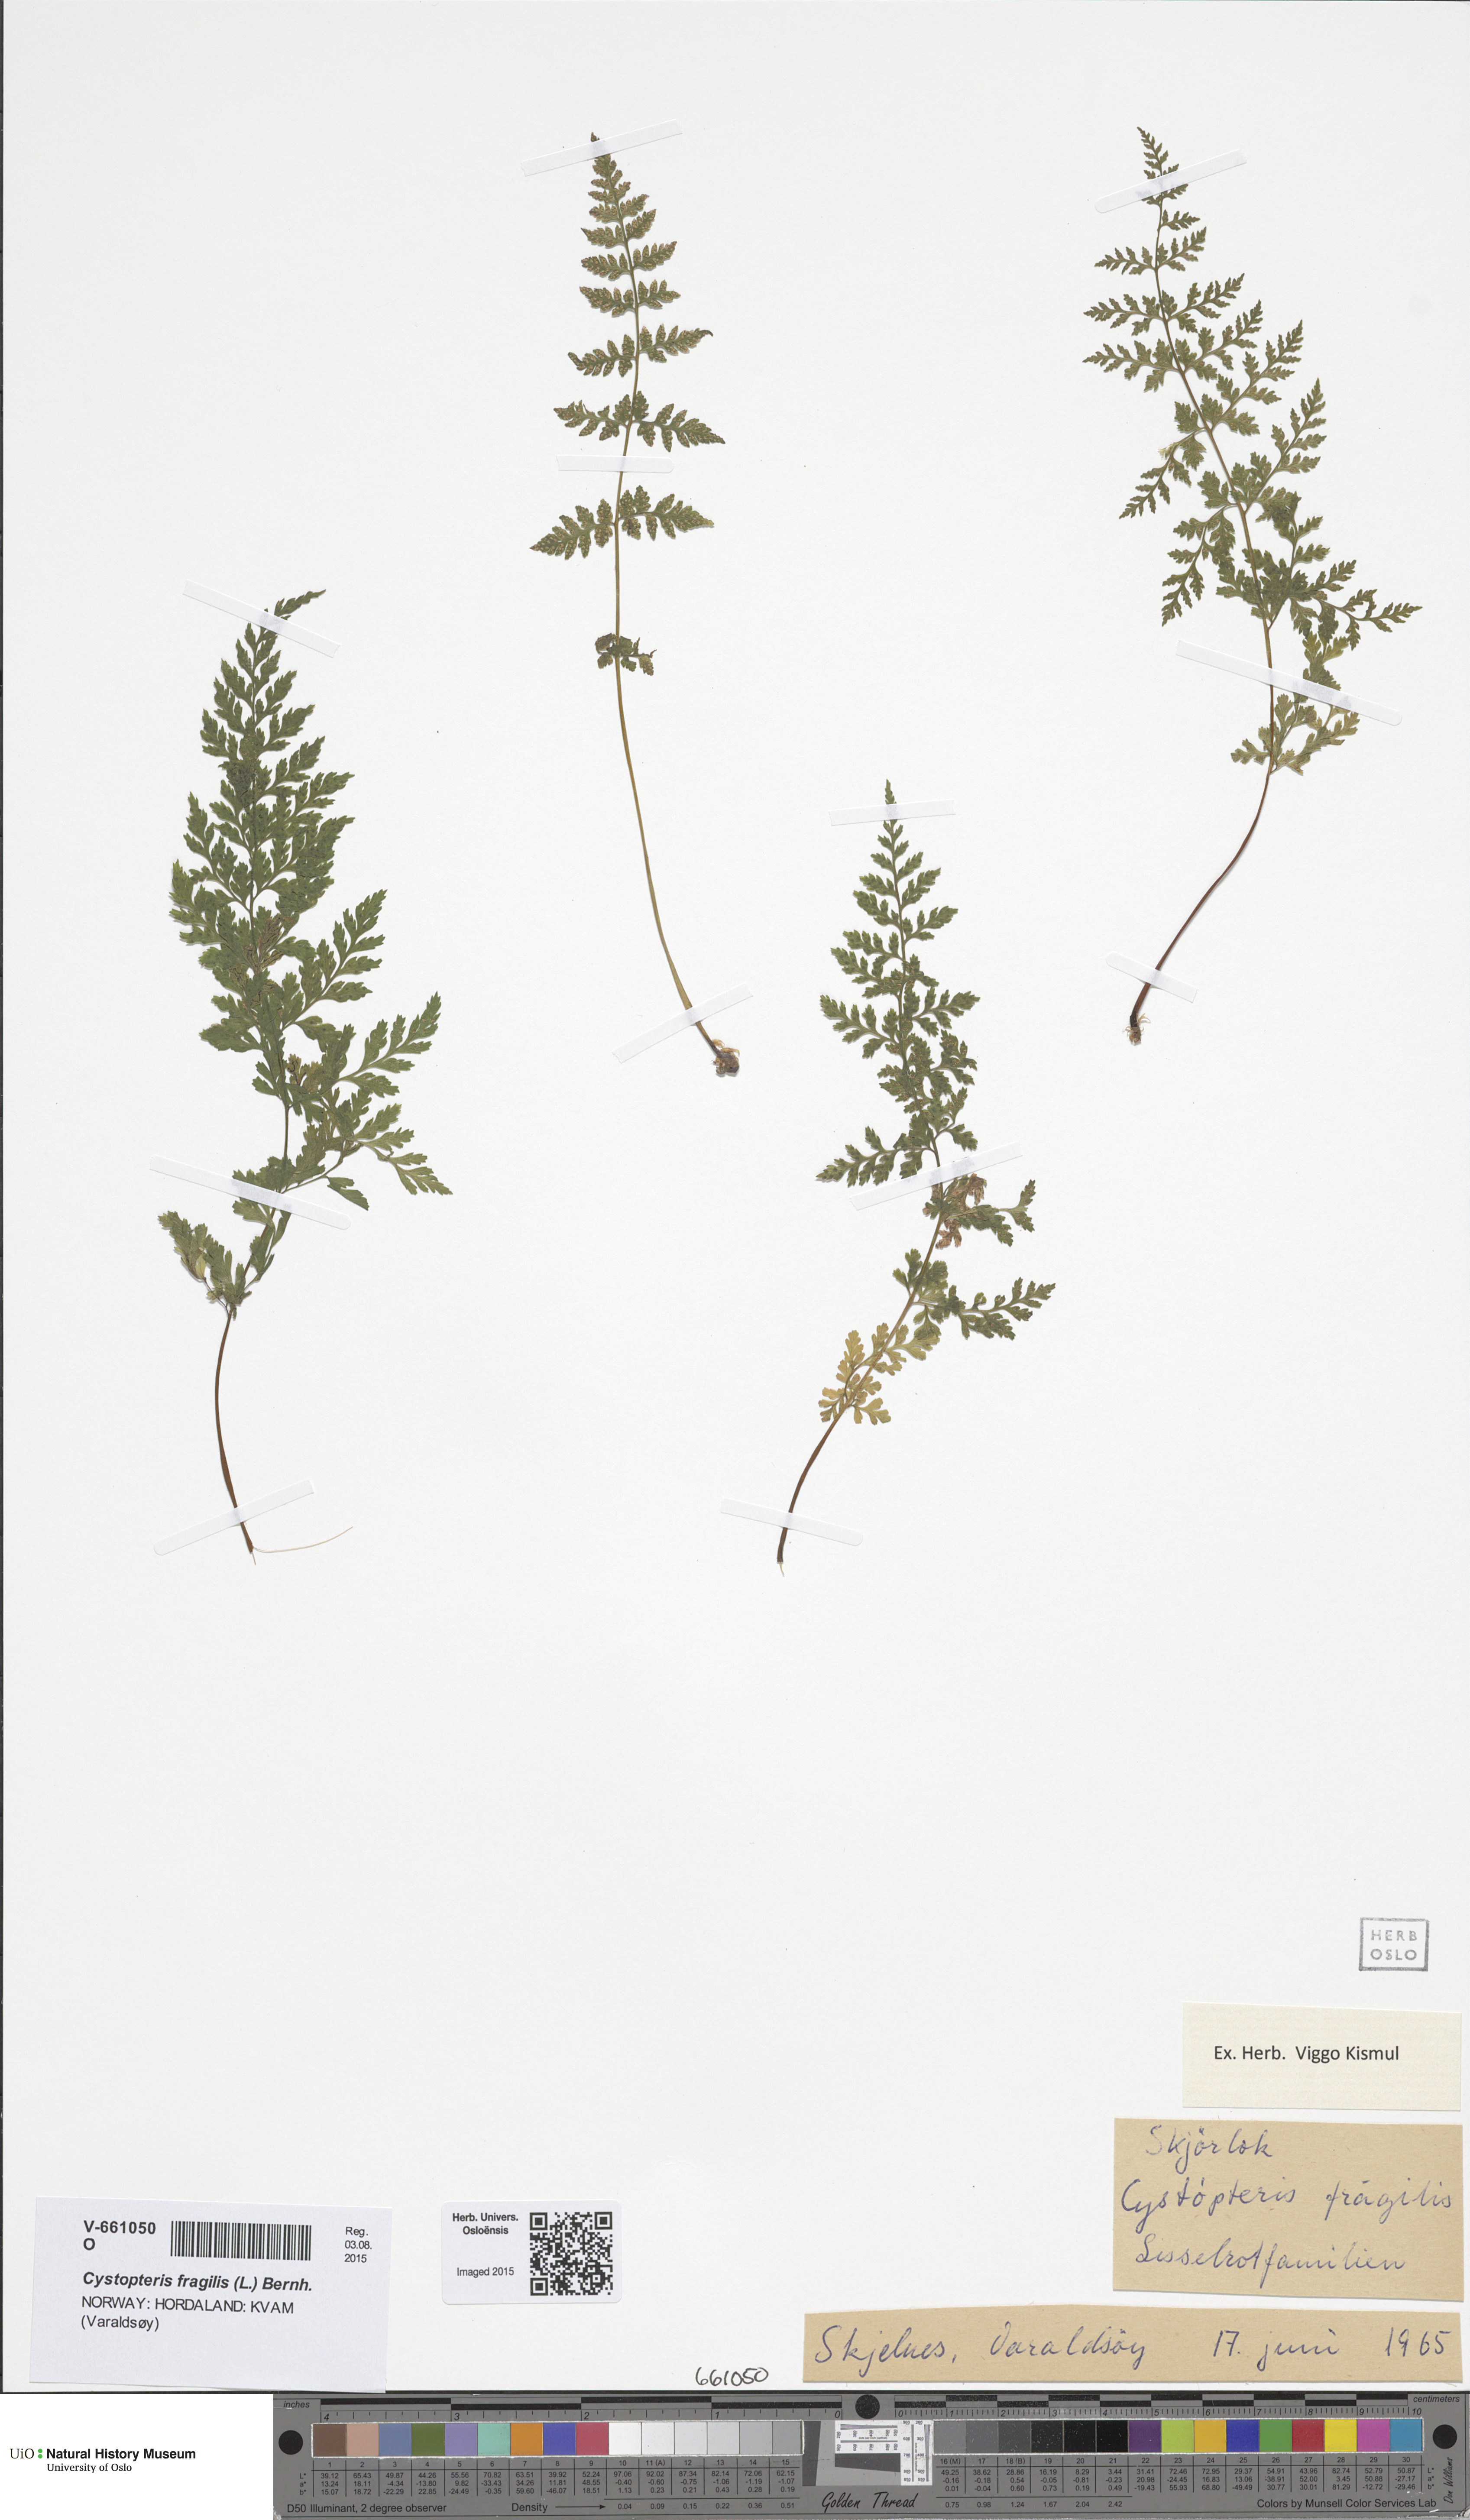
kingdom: Plantae
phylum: Tracheophyta
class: Polypodiopsida
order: Polypodiales
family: Cystopteridaceae
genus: Cystopteris
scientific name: Cystopteris fragilis
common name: Brittle bladder fern
